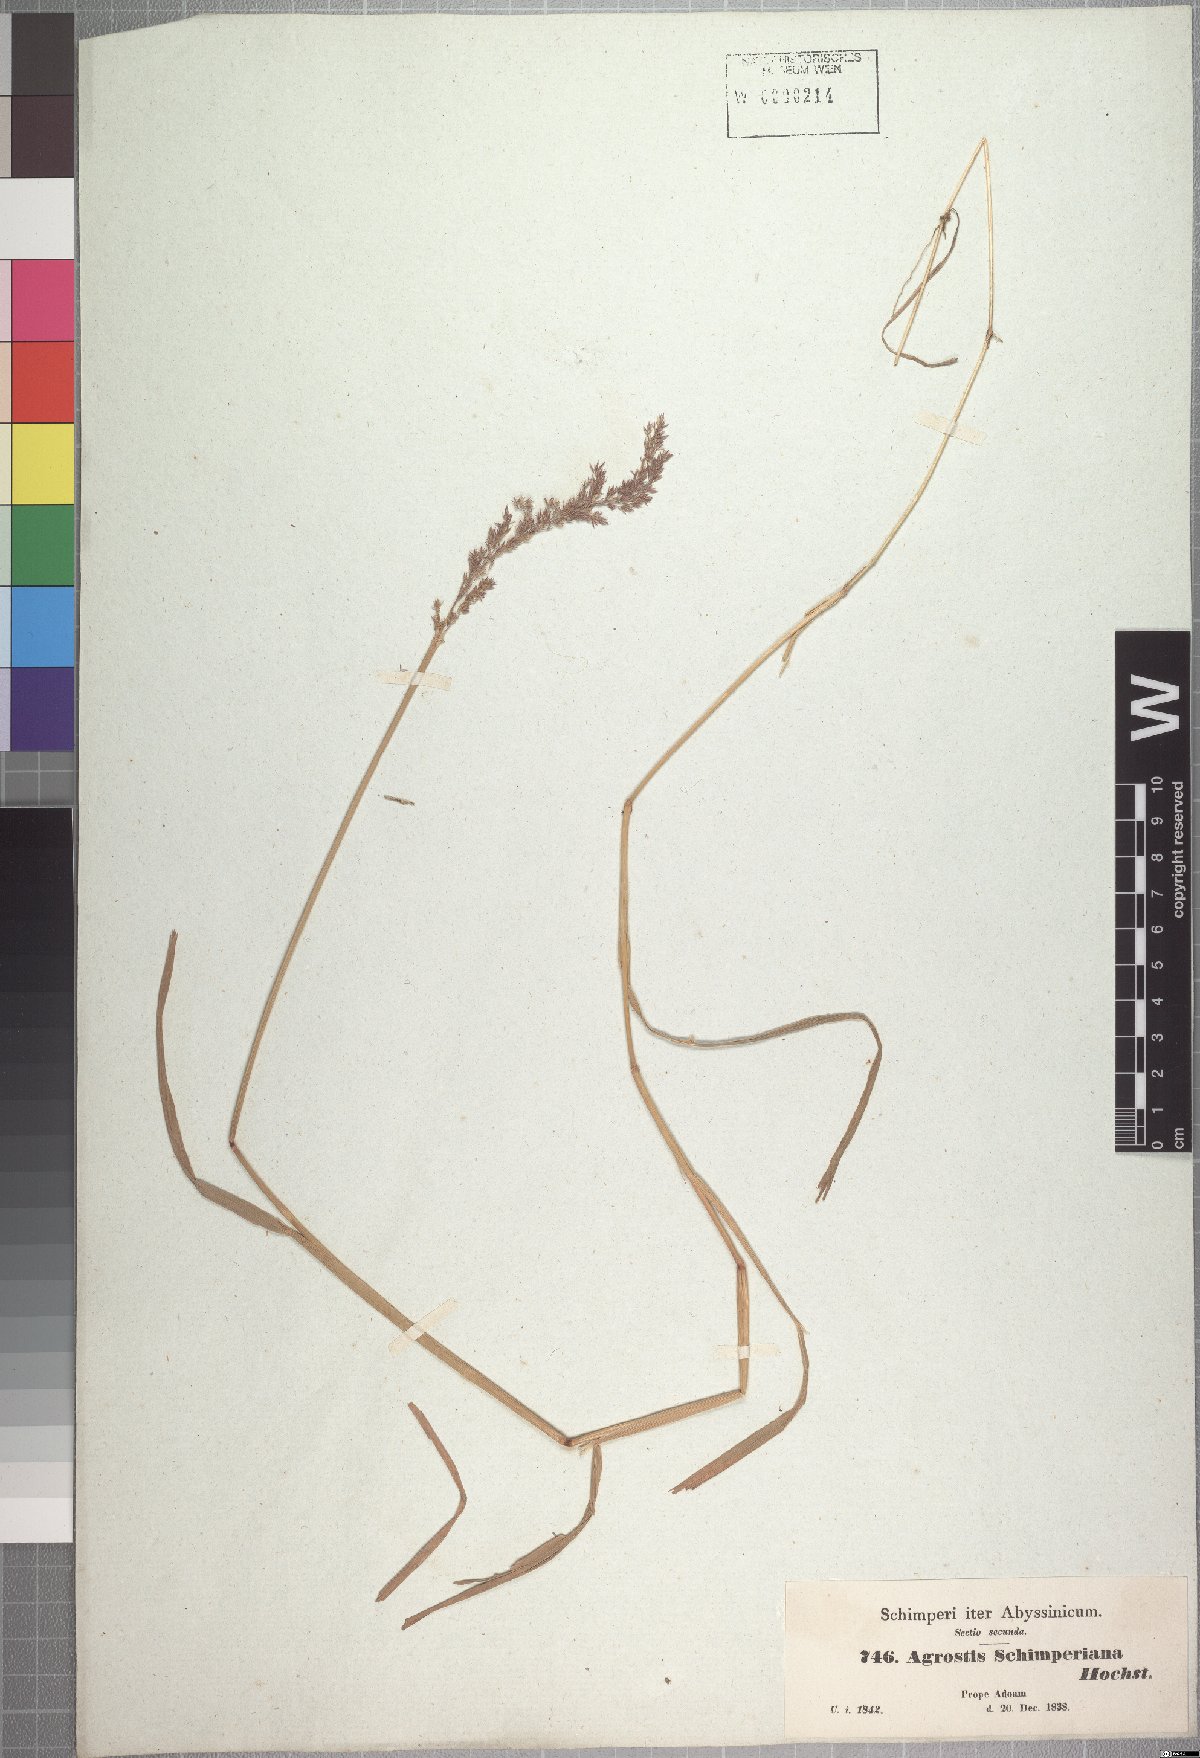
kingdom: Plantae
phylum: Tracheophyta
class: Liliopsida
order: Poales
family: Poaceae
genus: Polypogon
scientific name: Polypogon schimperianus
